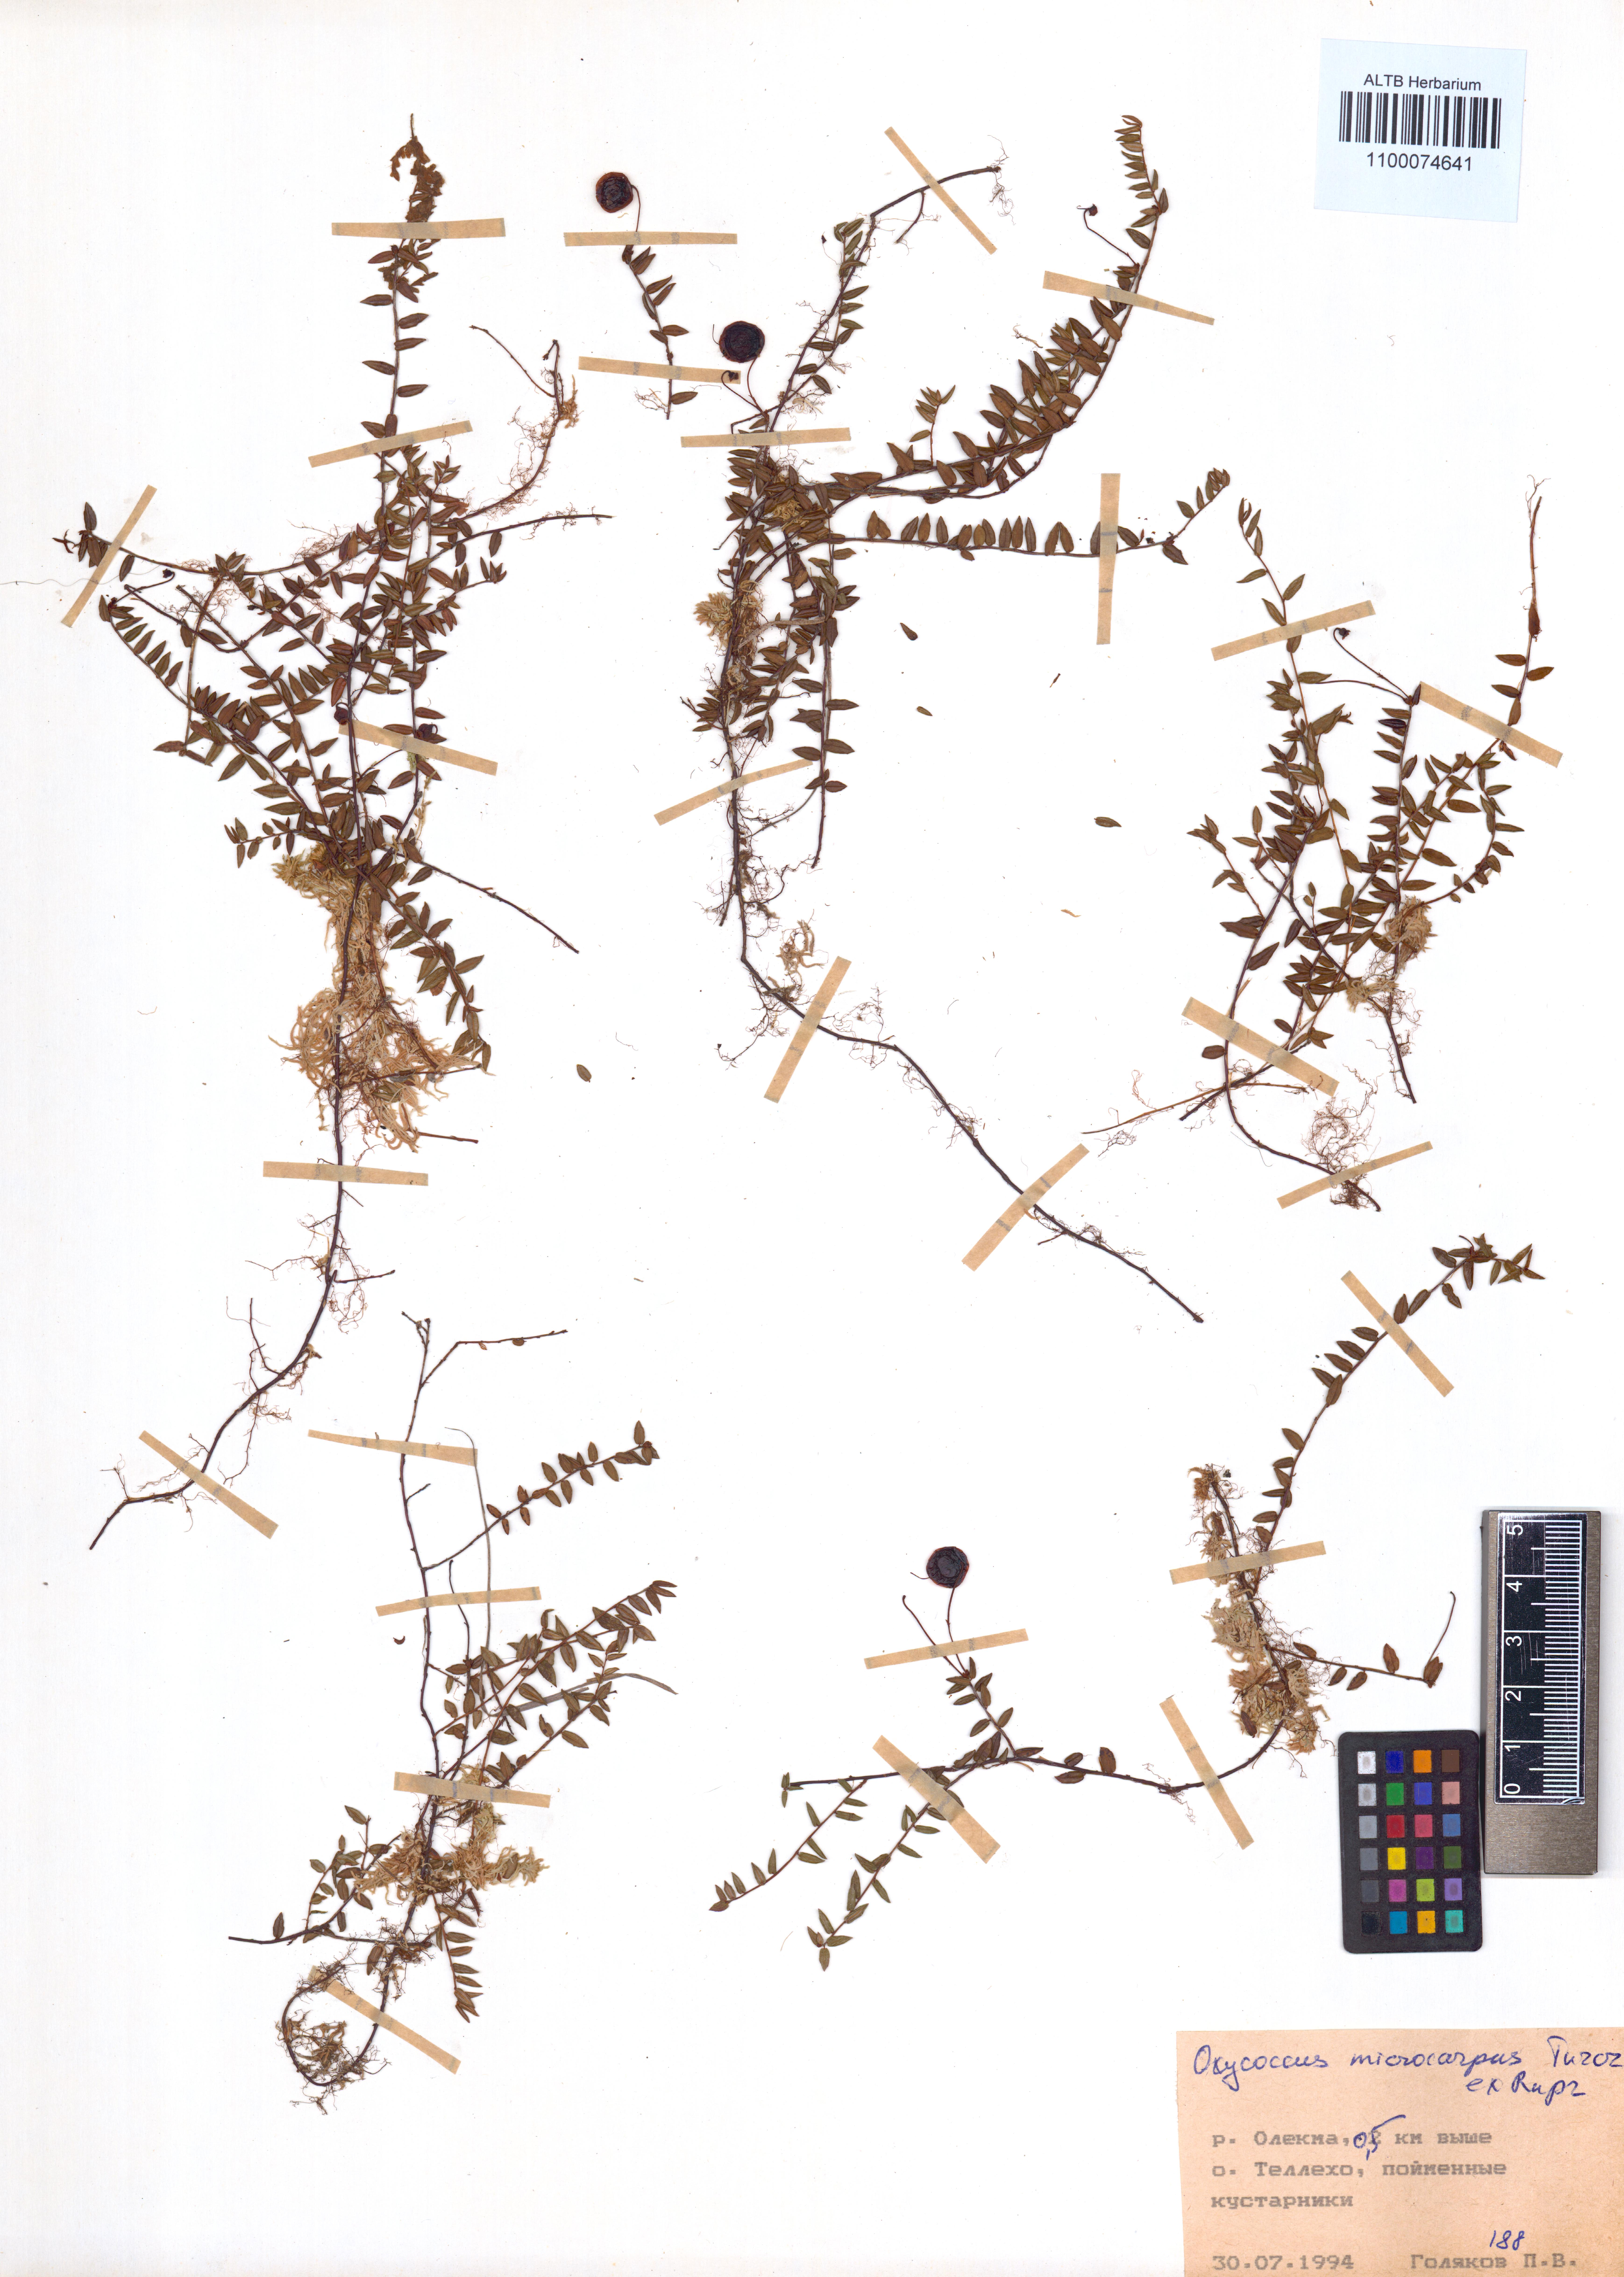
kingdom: Plantae
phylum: Tracheophyta
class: Magnoliopsida
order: Ericales
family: Ericaceae
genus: Vaccinium
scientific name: Vaccinium microcarpum
